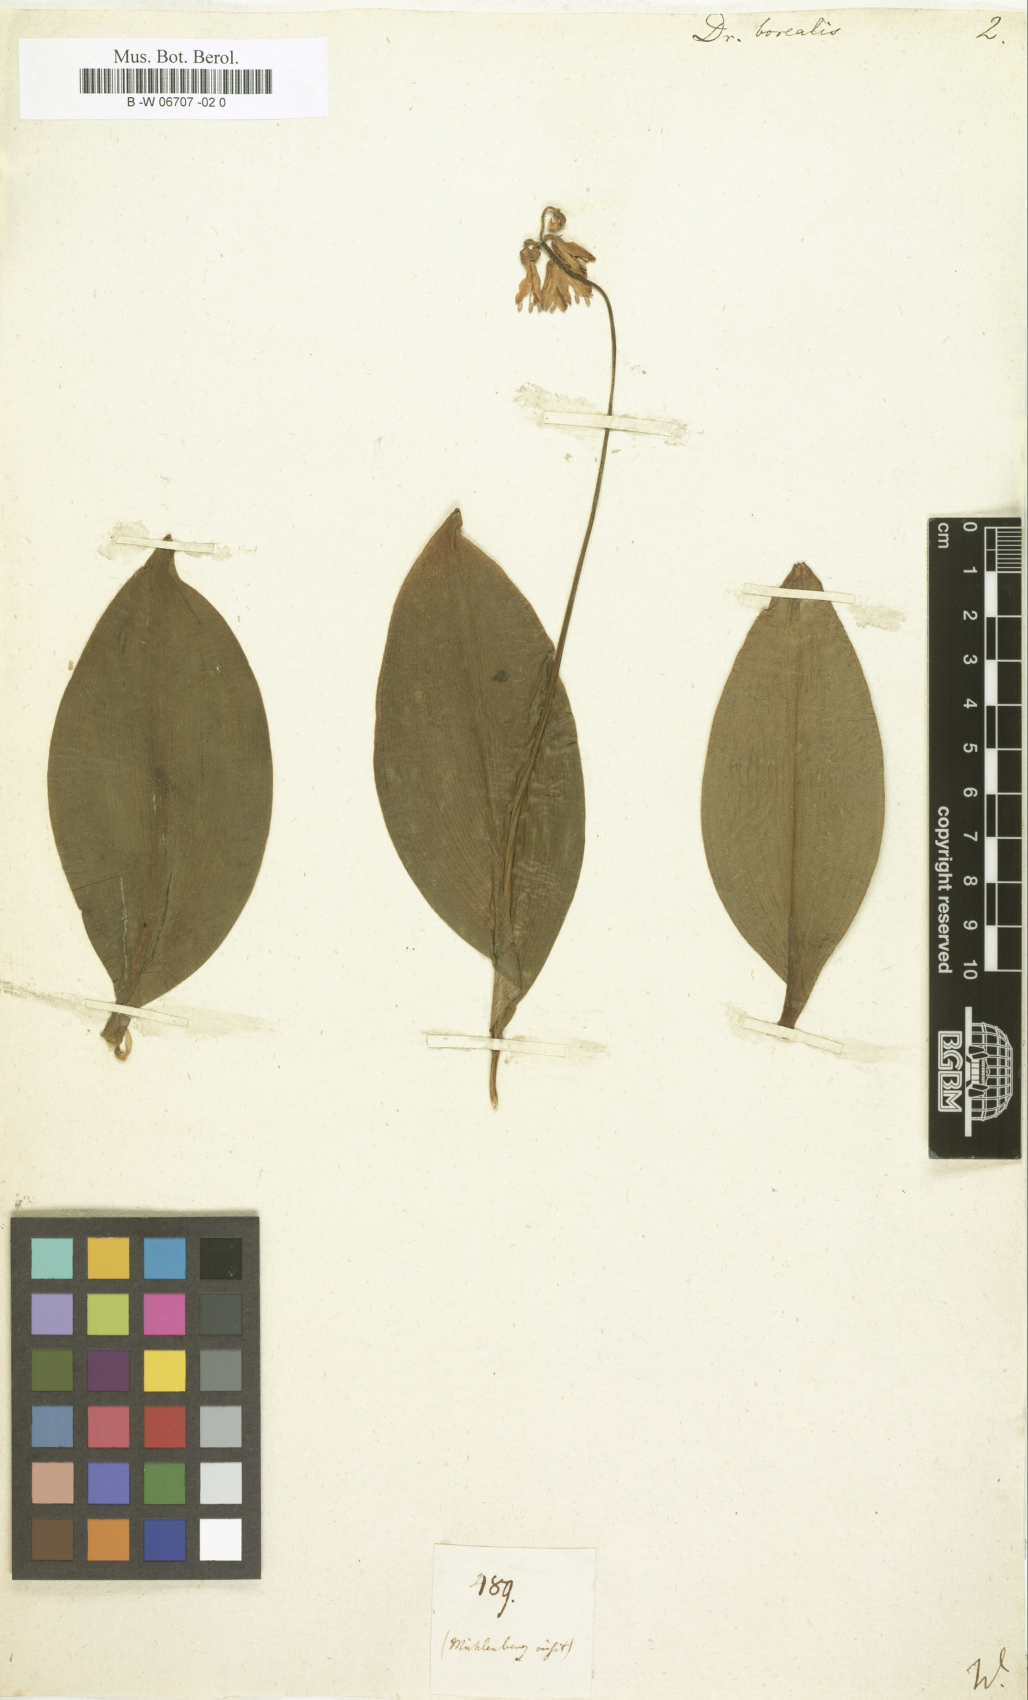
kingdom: Plantae
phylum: Tracheophyta
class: Liliopsida
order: Liliales
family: Liliaceae
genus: Clintonia
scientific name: Clintonia borealis
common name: Yellow clintonia
